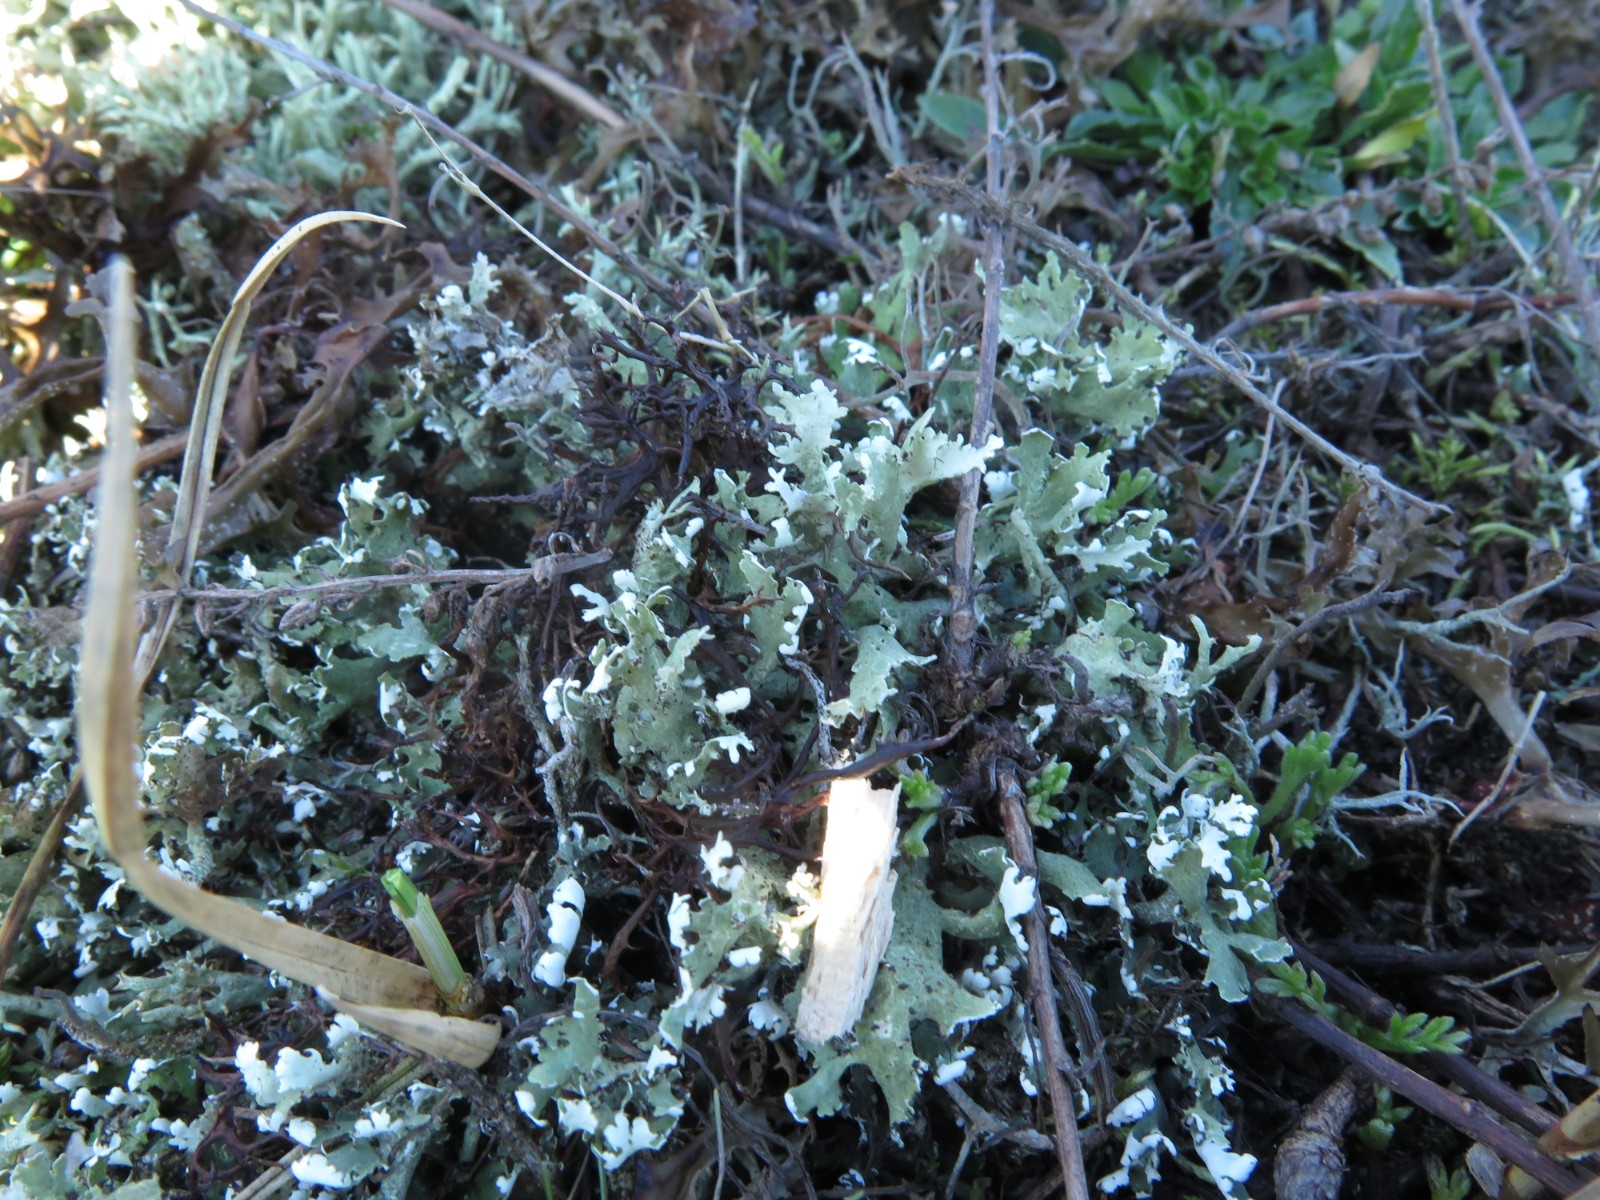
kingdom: Fungi
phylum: Ascomycota
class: Lecanoromycetes
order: Lecanorales
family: Cladoniaceae
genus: Cladonia
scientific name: Cladonia foliacea
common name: fliget bægerlav
